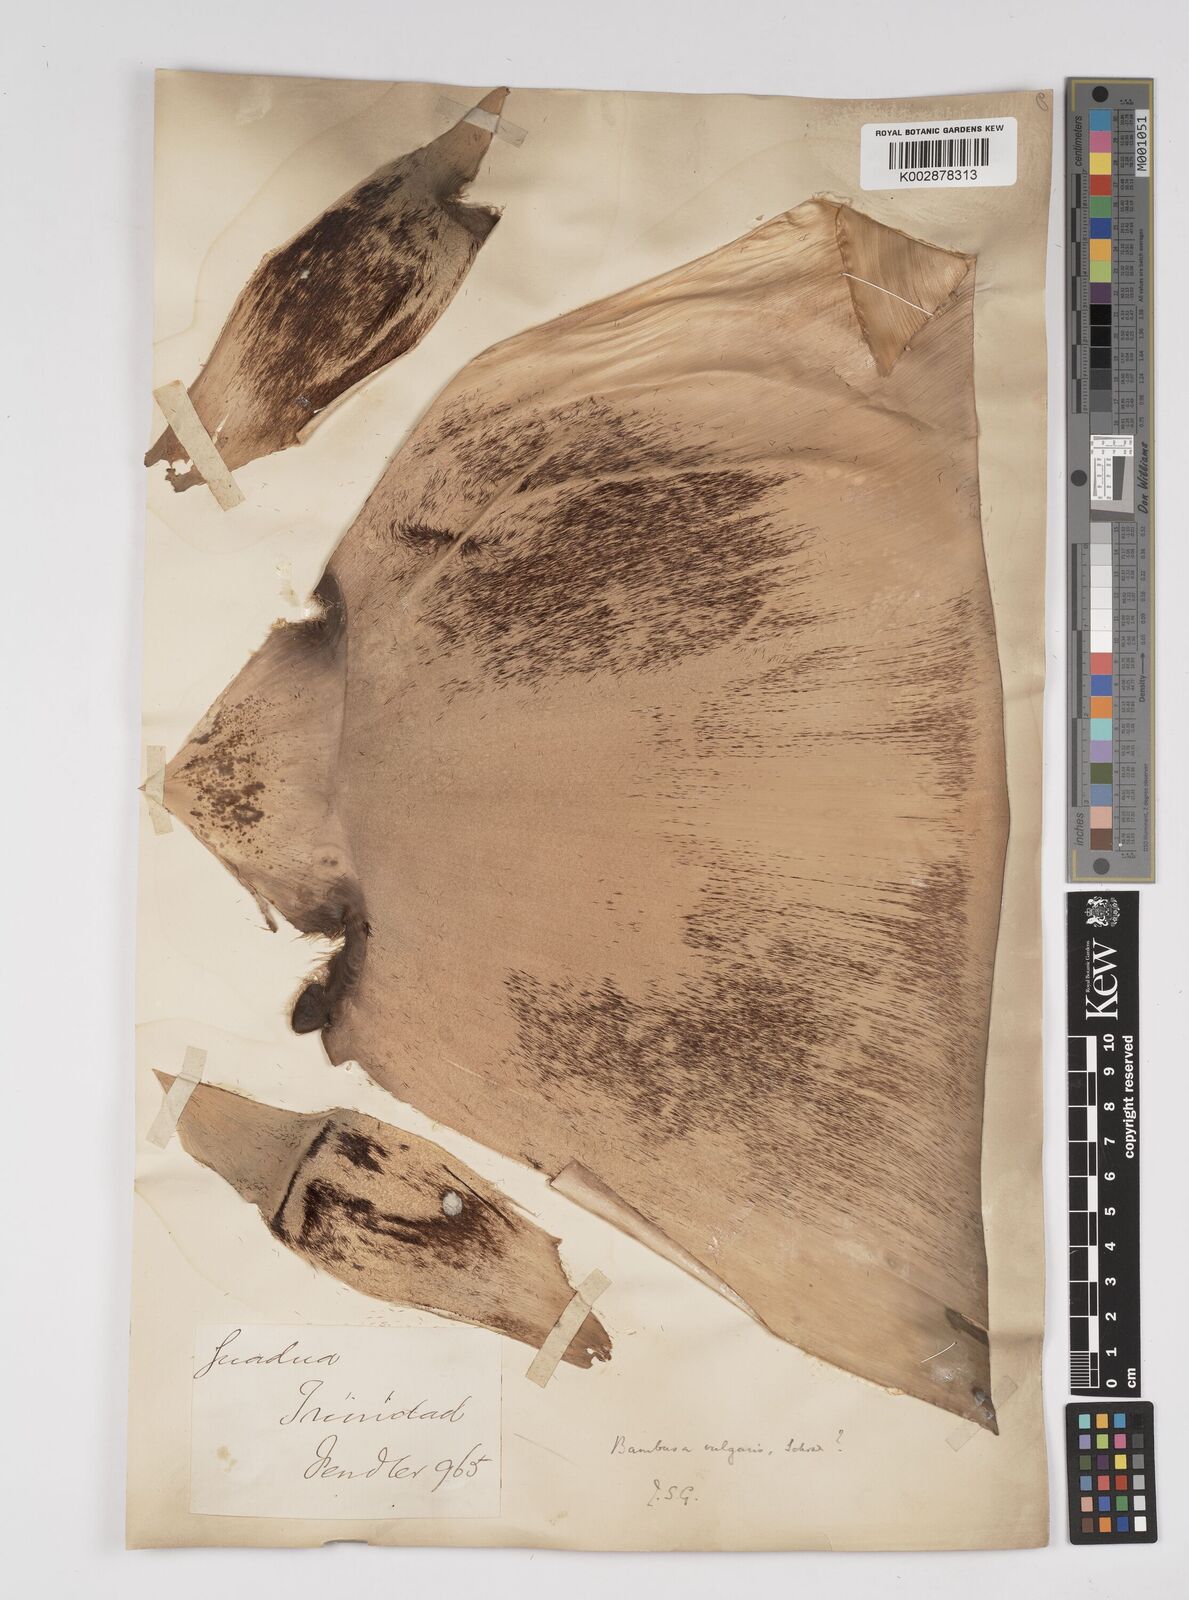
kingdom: Plantae
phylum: Tracheophyta
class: Liliopsida
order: Poales
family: Poaceae
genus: Bambusa
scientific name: Bambusa vulgaris
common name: Common bamboo
